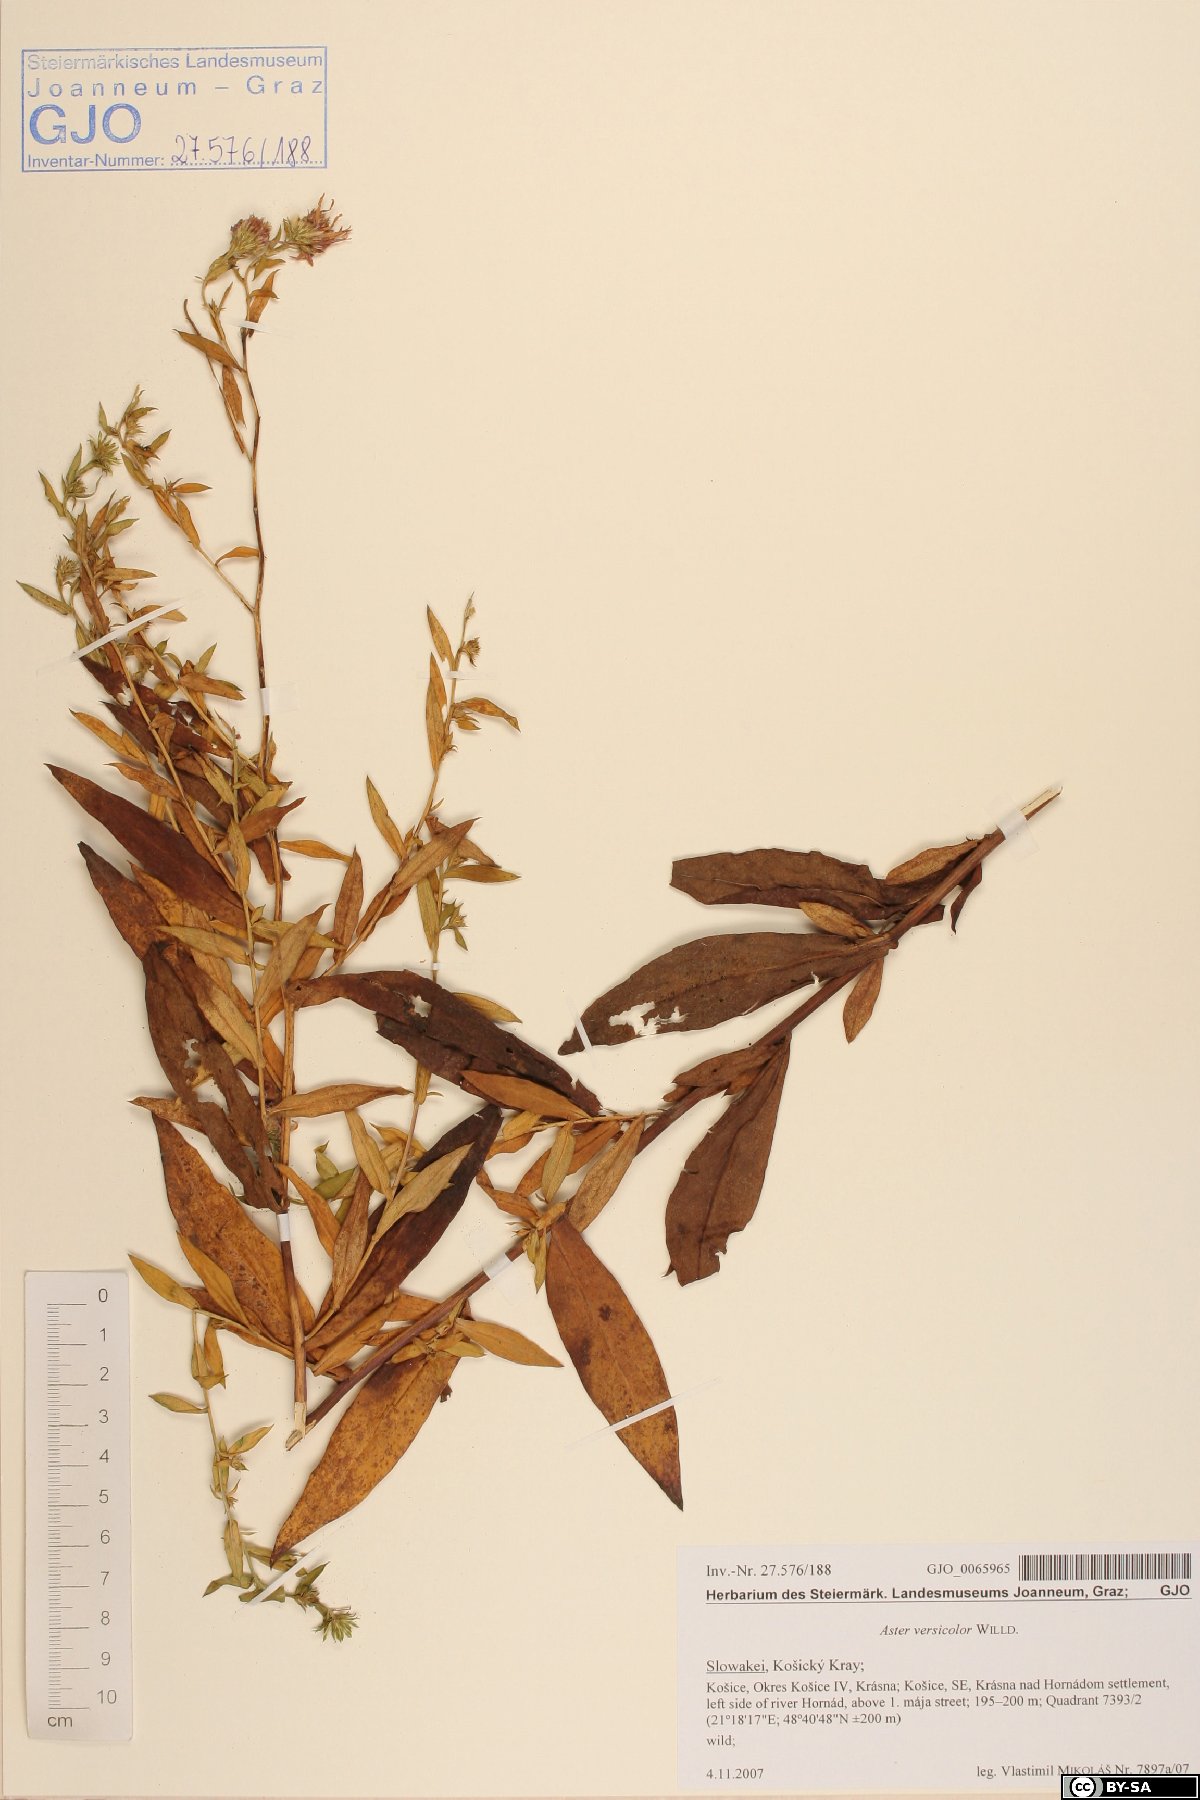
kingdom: Plantae
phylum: Tracheophyta
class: Magnoliopsida
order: Asterales
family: Asteraceae
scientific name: Asteraceae
